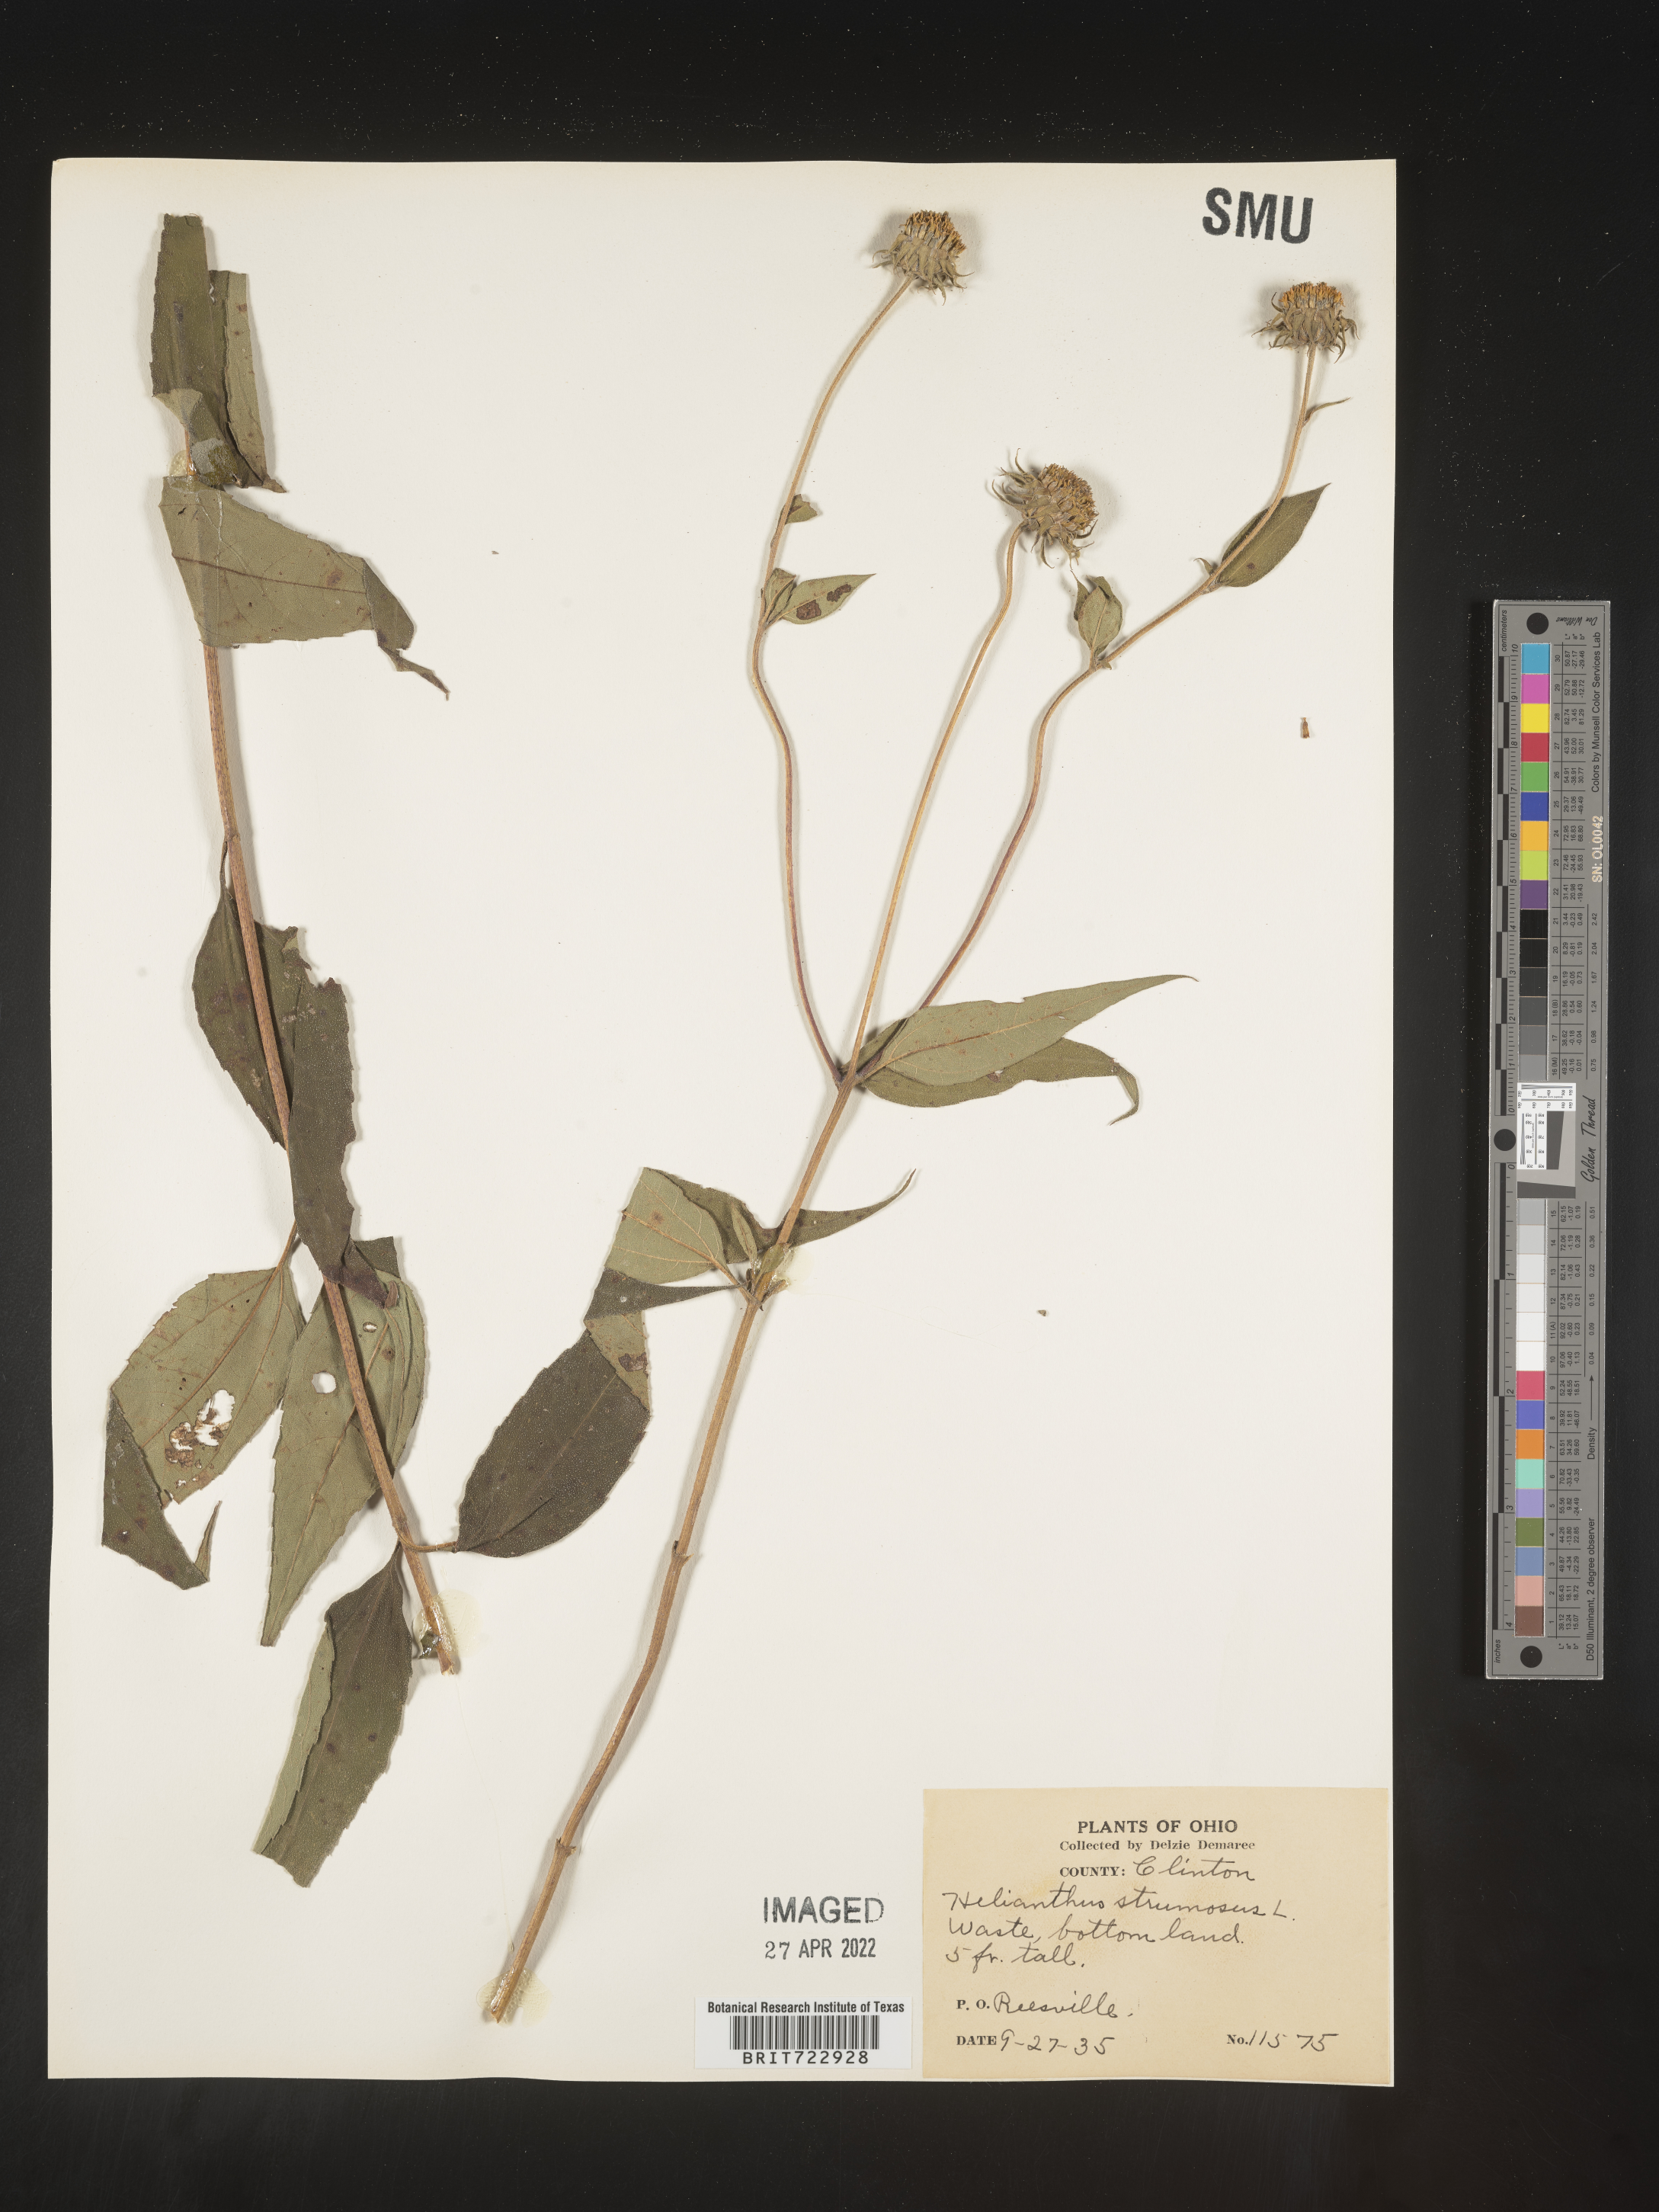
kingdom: Plantae
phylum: Tracheophyta
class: Magnoliopsida
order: Asterales
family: Asteraceae
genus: Helianthus
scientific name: Helianthus strumosus
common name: Pale-leaved sunflower
